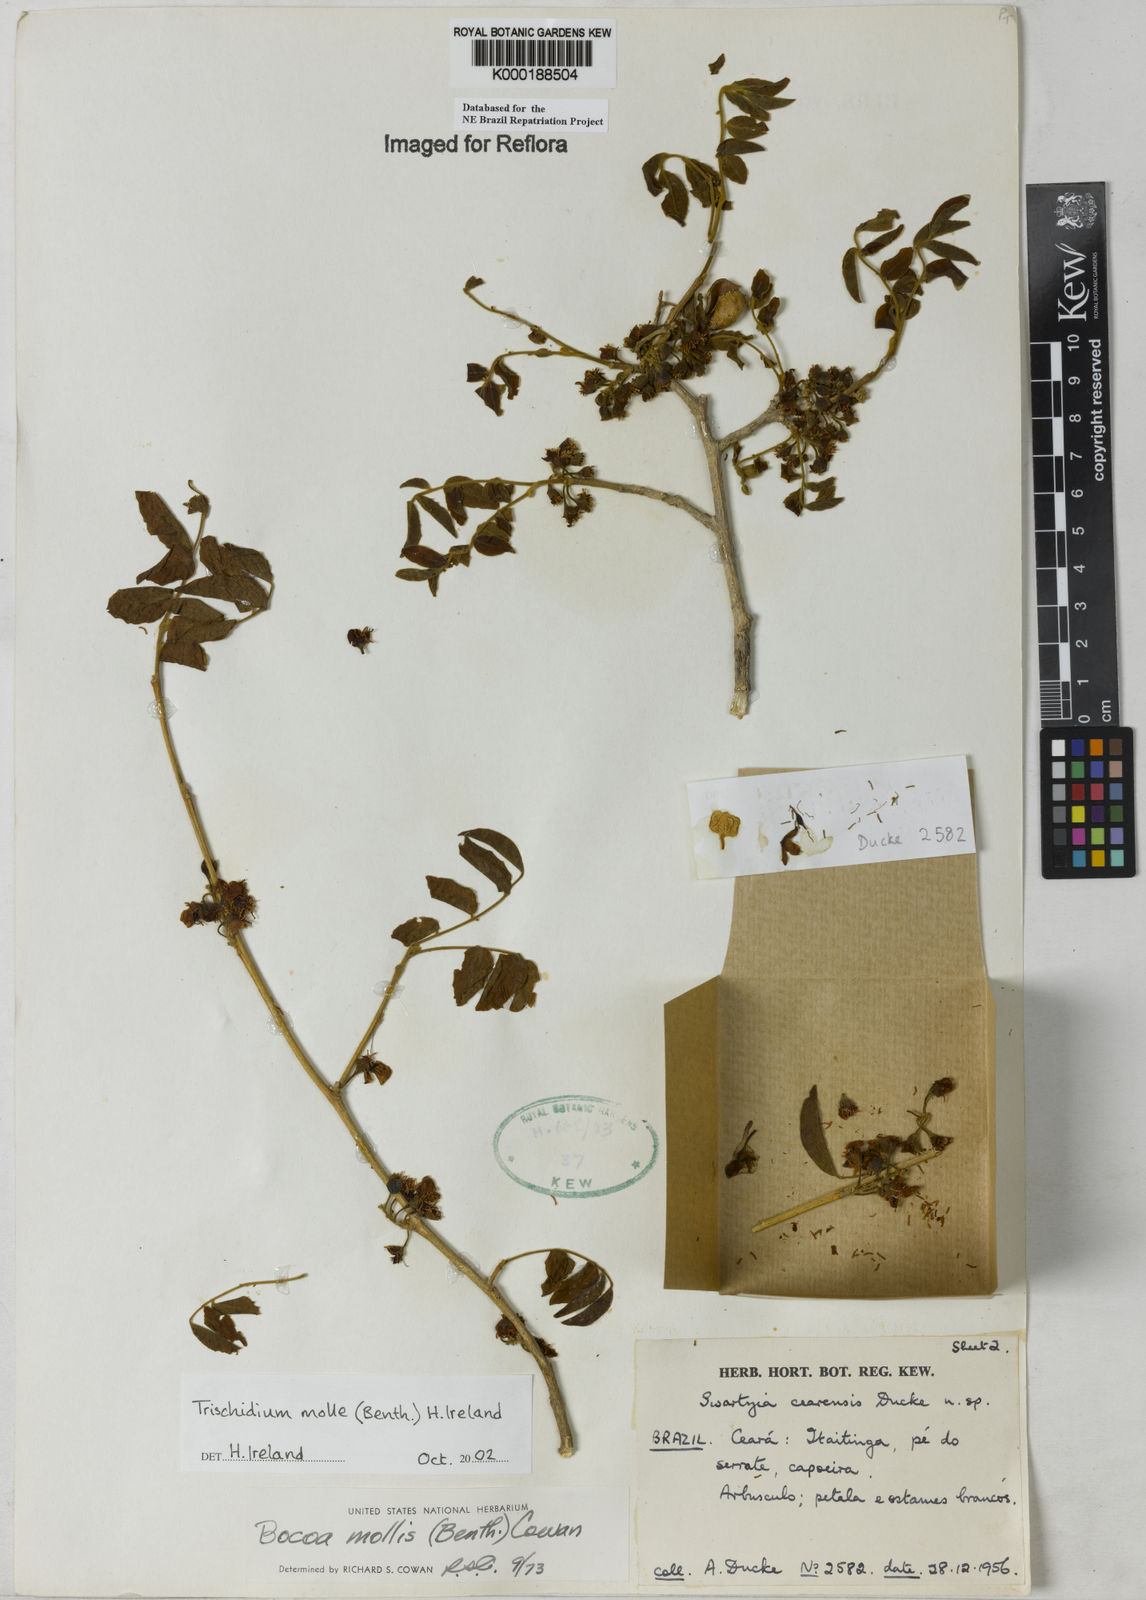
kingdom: Plantae
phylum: Tracheophyta
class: Magnoliopsida
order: Fabales
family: Fabaceae
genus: Trischidium
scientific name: Trischidium
